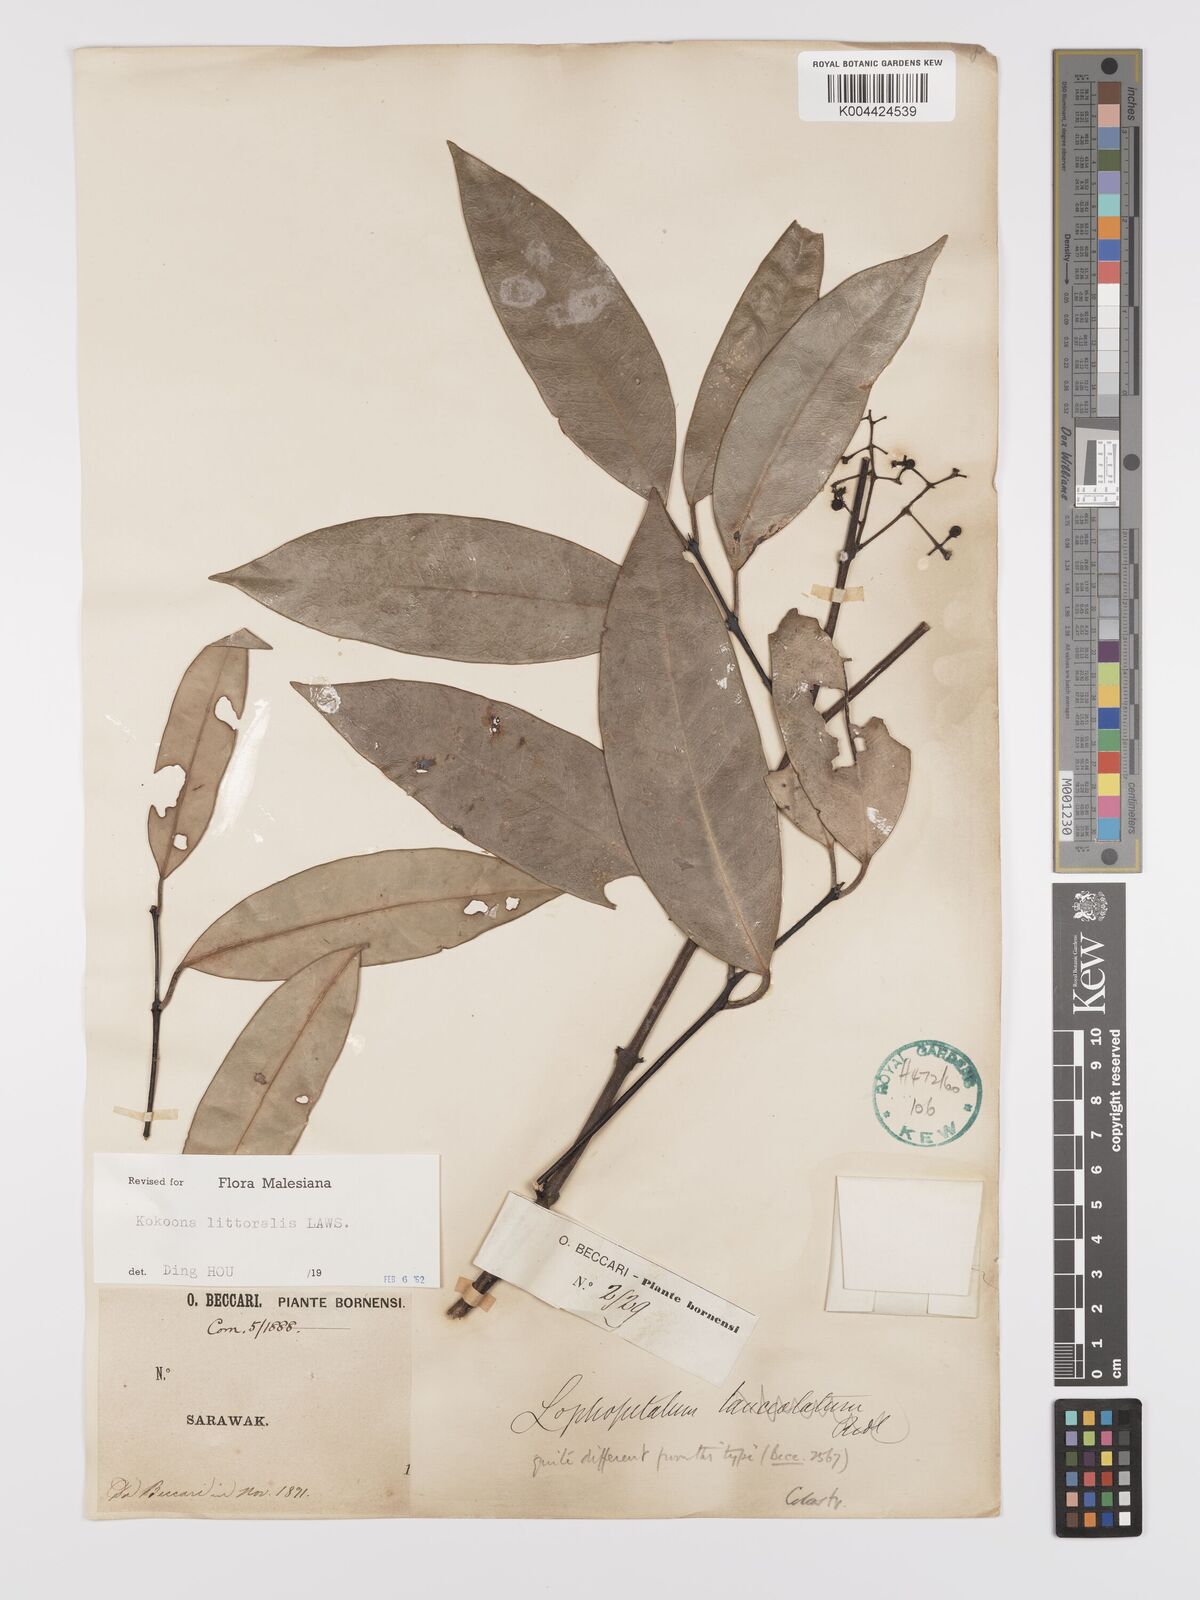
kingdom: Plantae
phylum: Tracheophyta
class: Magnoliopsida
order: Celastrales
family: Celastraceae
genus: Kokoona
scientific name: Kokoona littoralis
